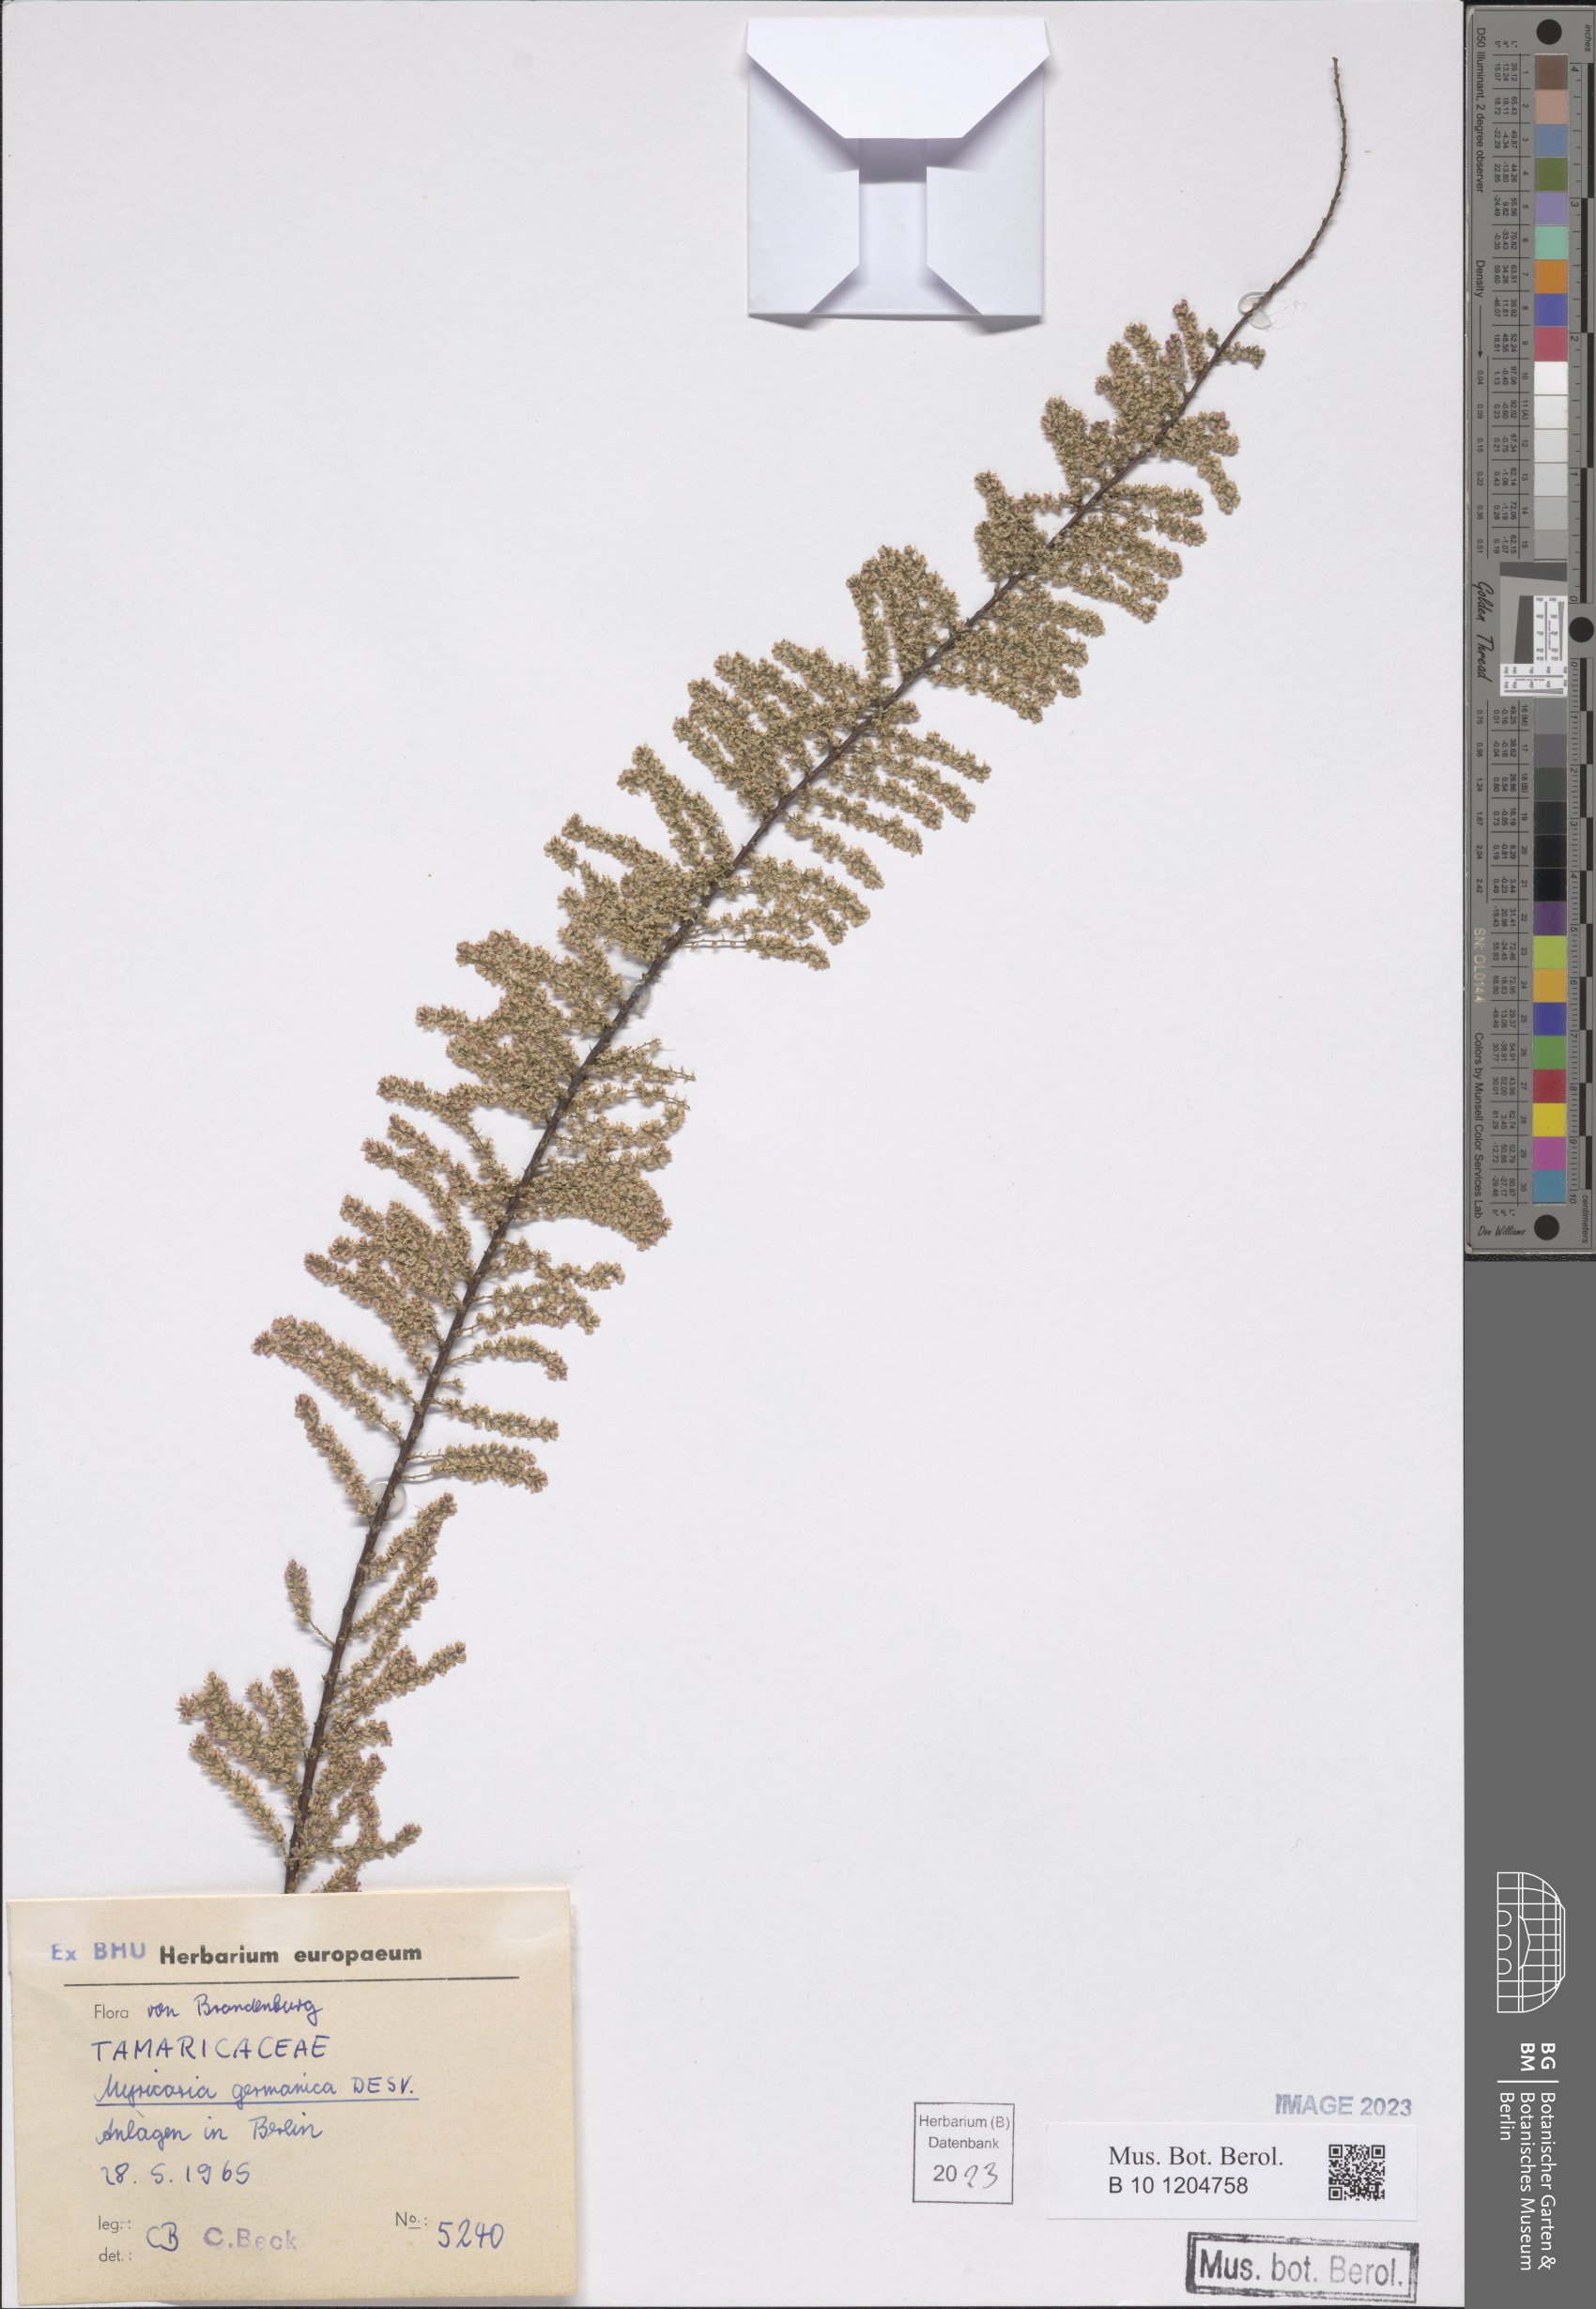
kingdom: Plantae
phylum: Tracheophyta
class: Magnoliopsida
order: Caryophyllales
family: Tamaricaceae
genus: Myricaria
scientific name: Myricaria germanica
